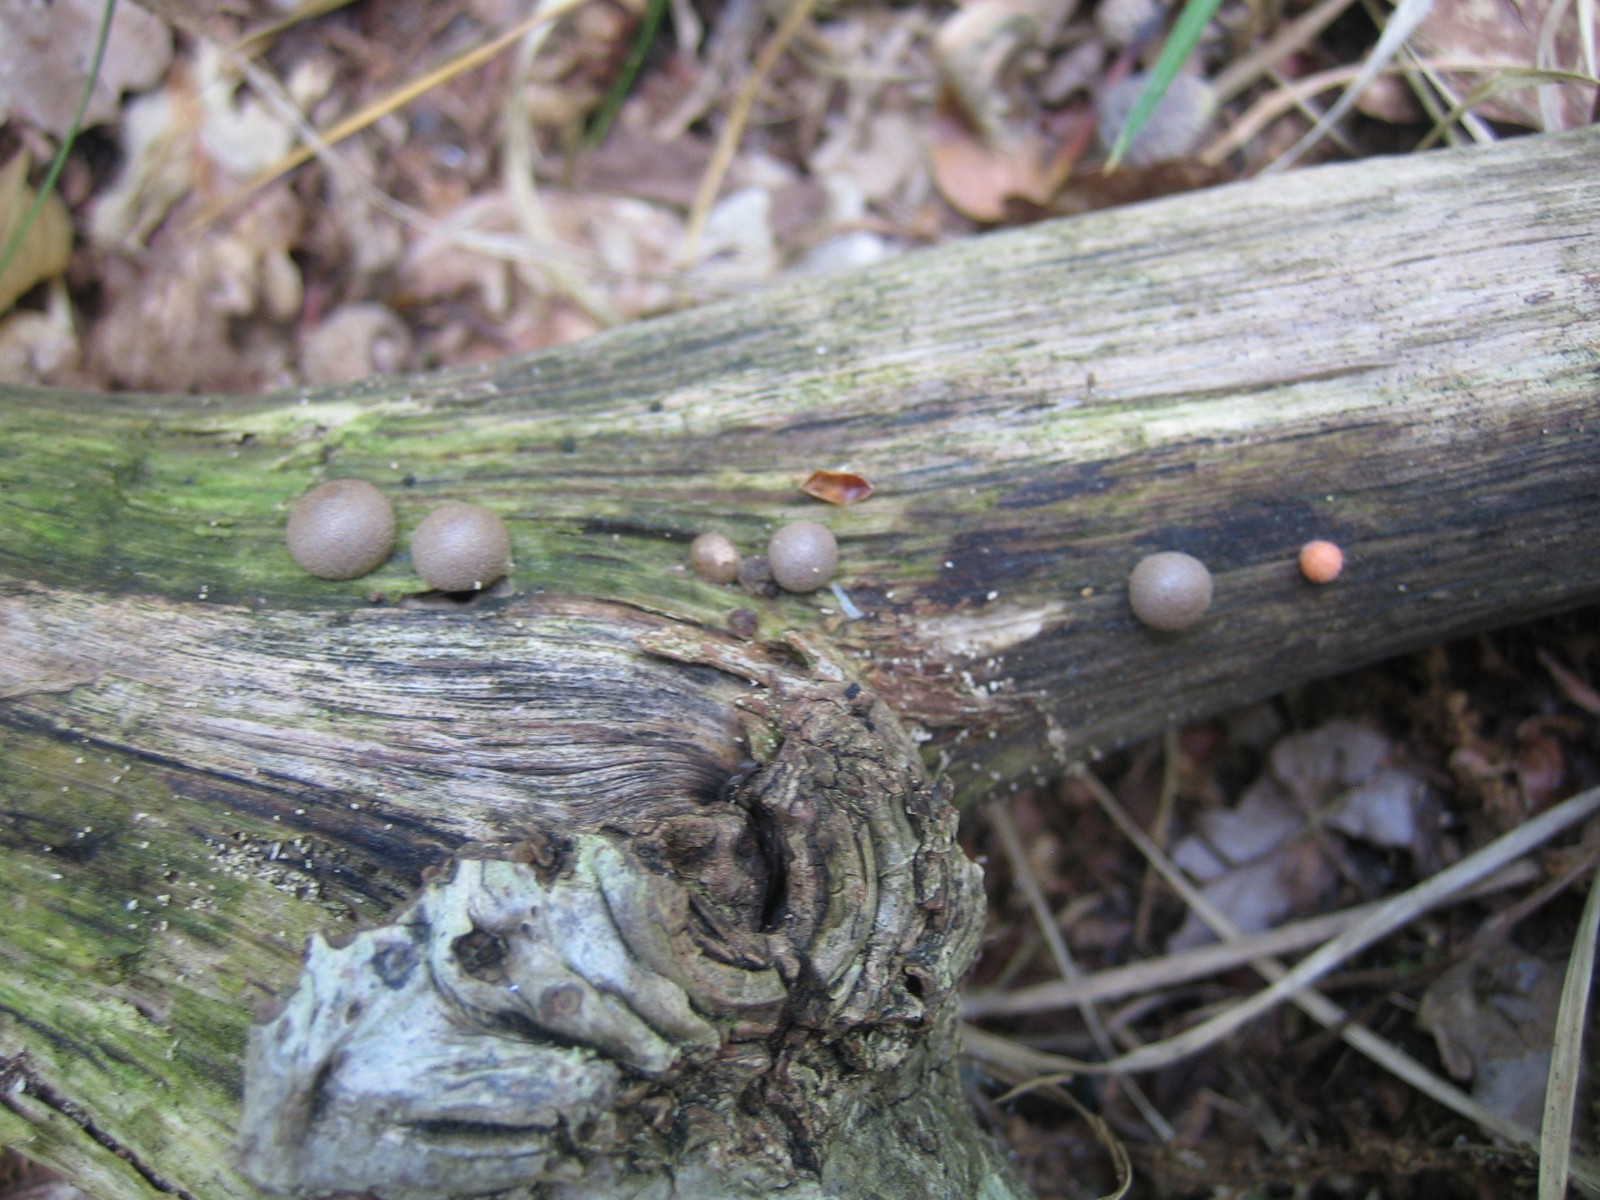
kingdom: Protozoa
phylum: Mycetozoa
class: Myxomycetes
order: Cribrariales
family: Tubiferaceae
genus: Lycogala
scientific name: Lycogala epidendrum
